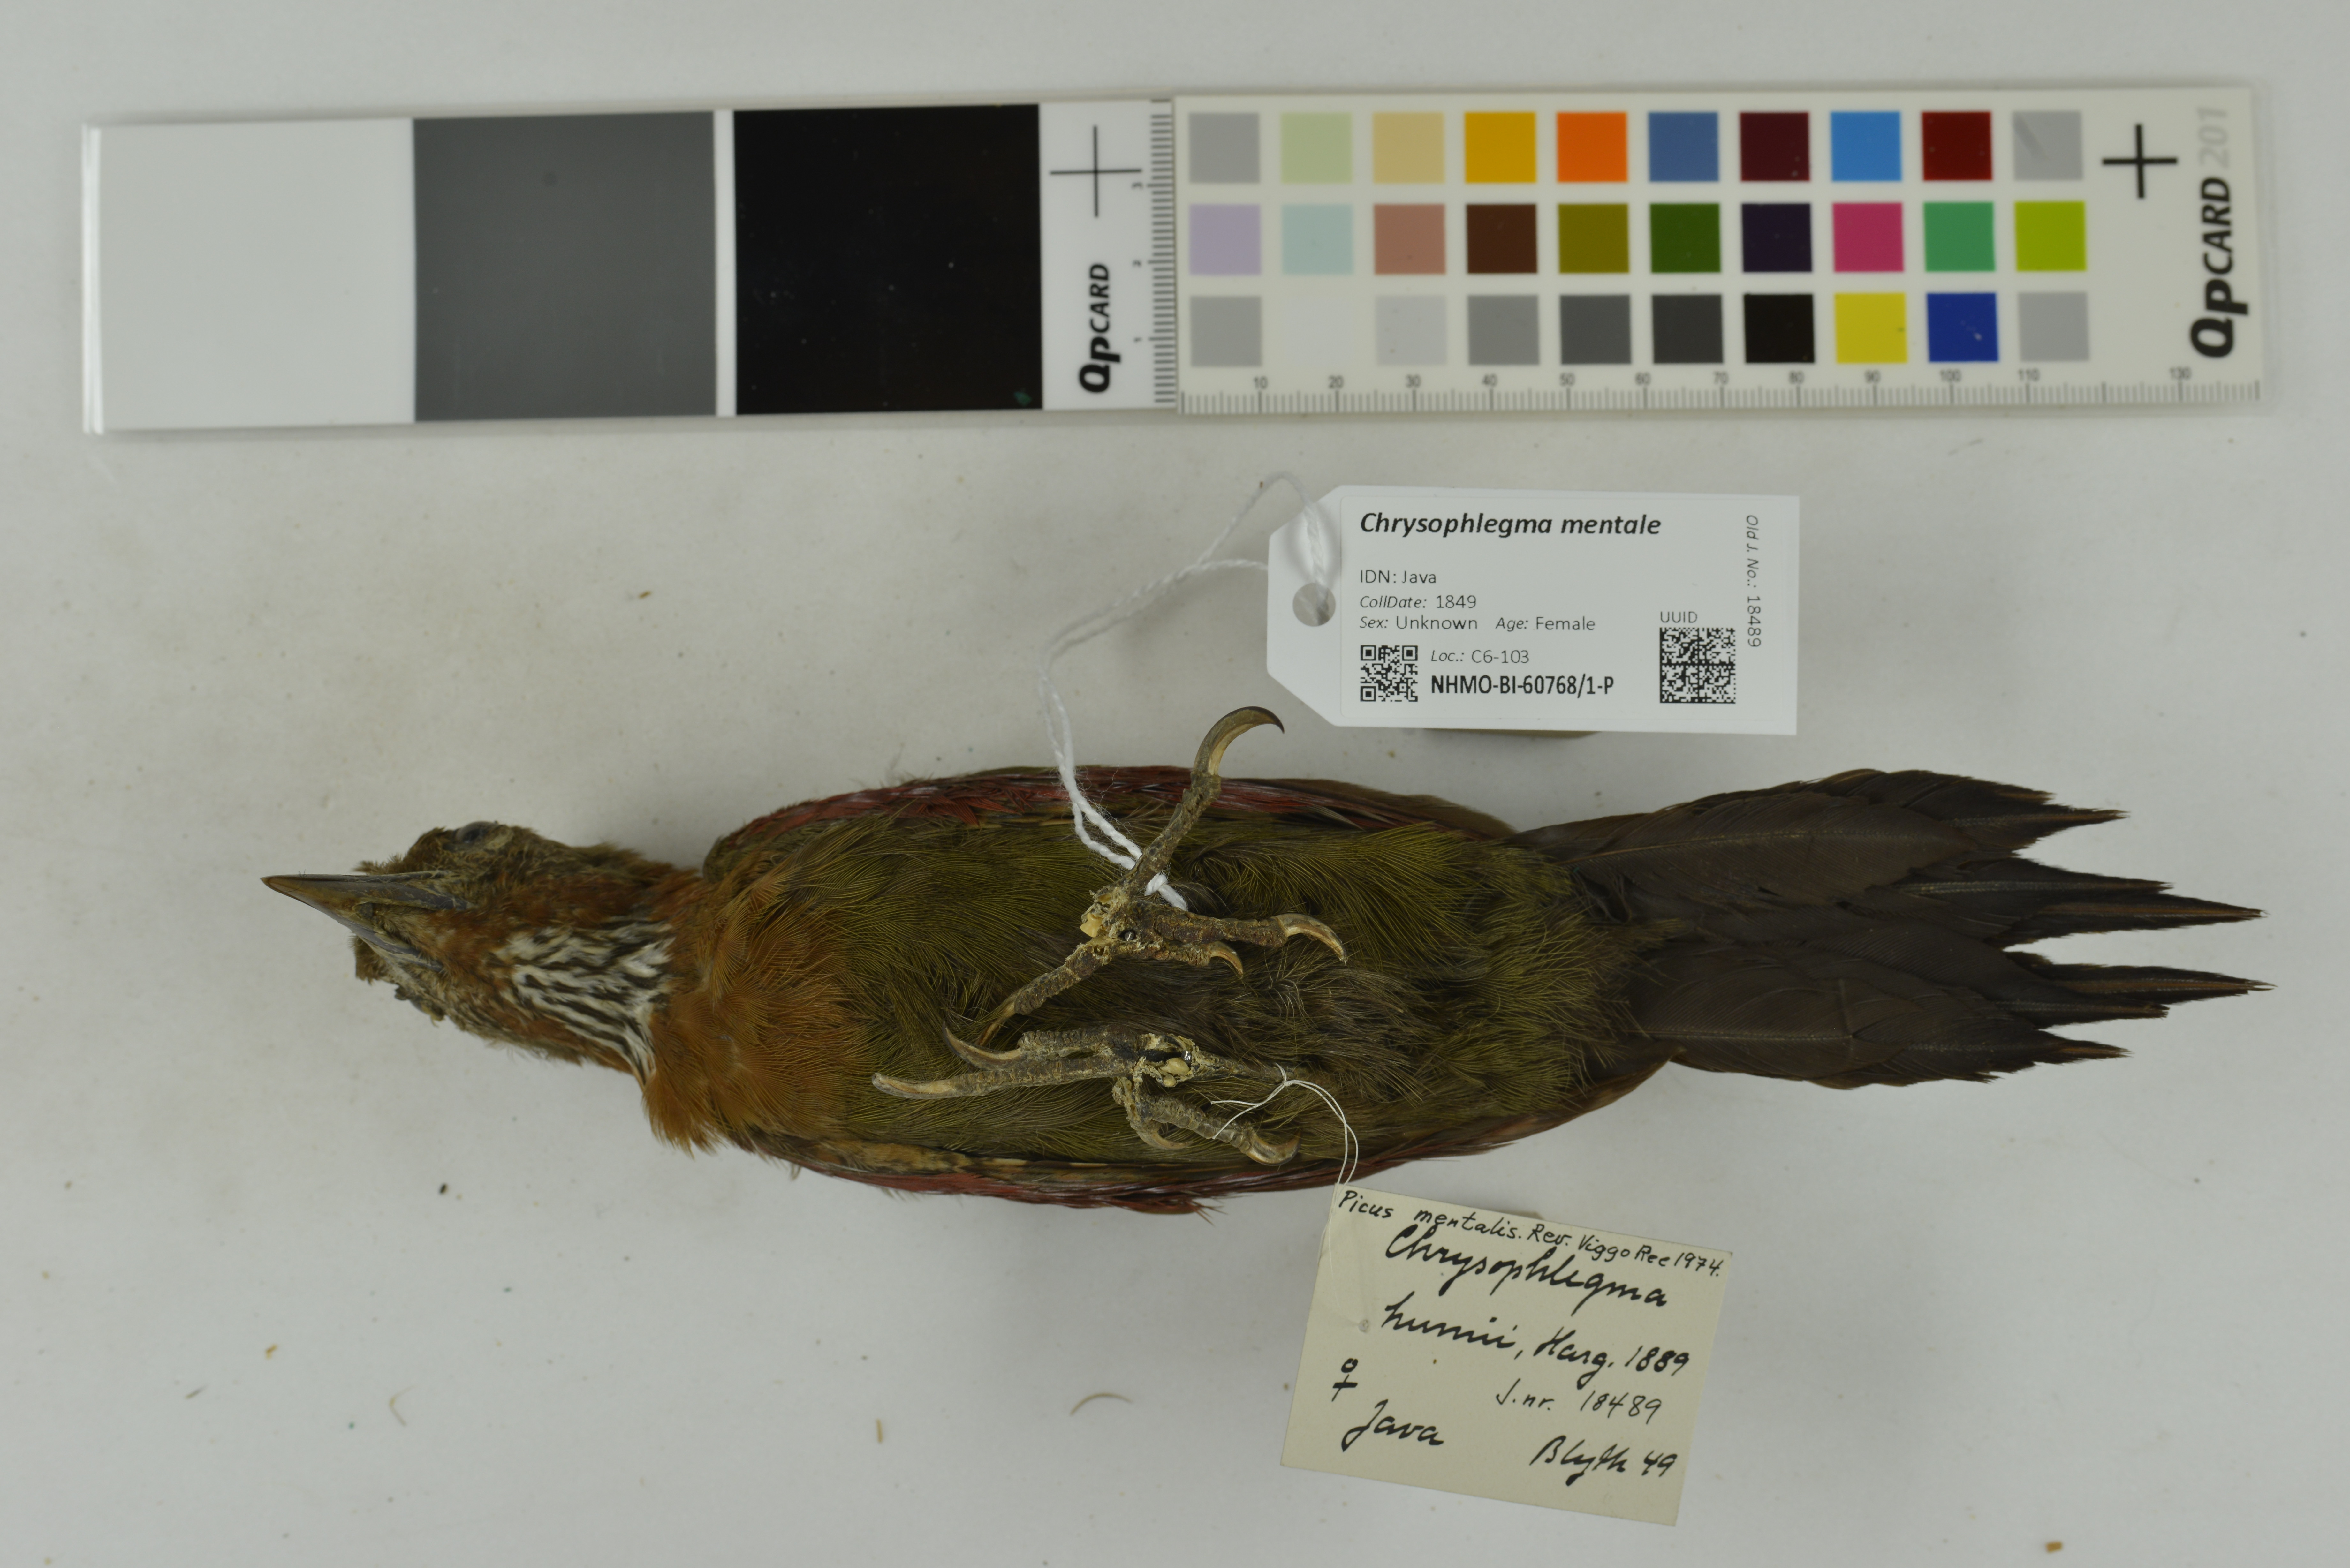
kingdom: Animalia
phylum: Chordata
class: Aves
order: Piciformes
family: Picidae
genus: Chrysophlegma
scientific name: Chrysophlegma mentale
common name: Checker-throated woodpecker
